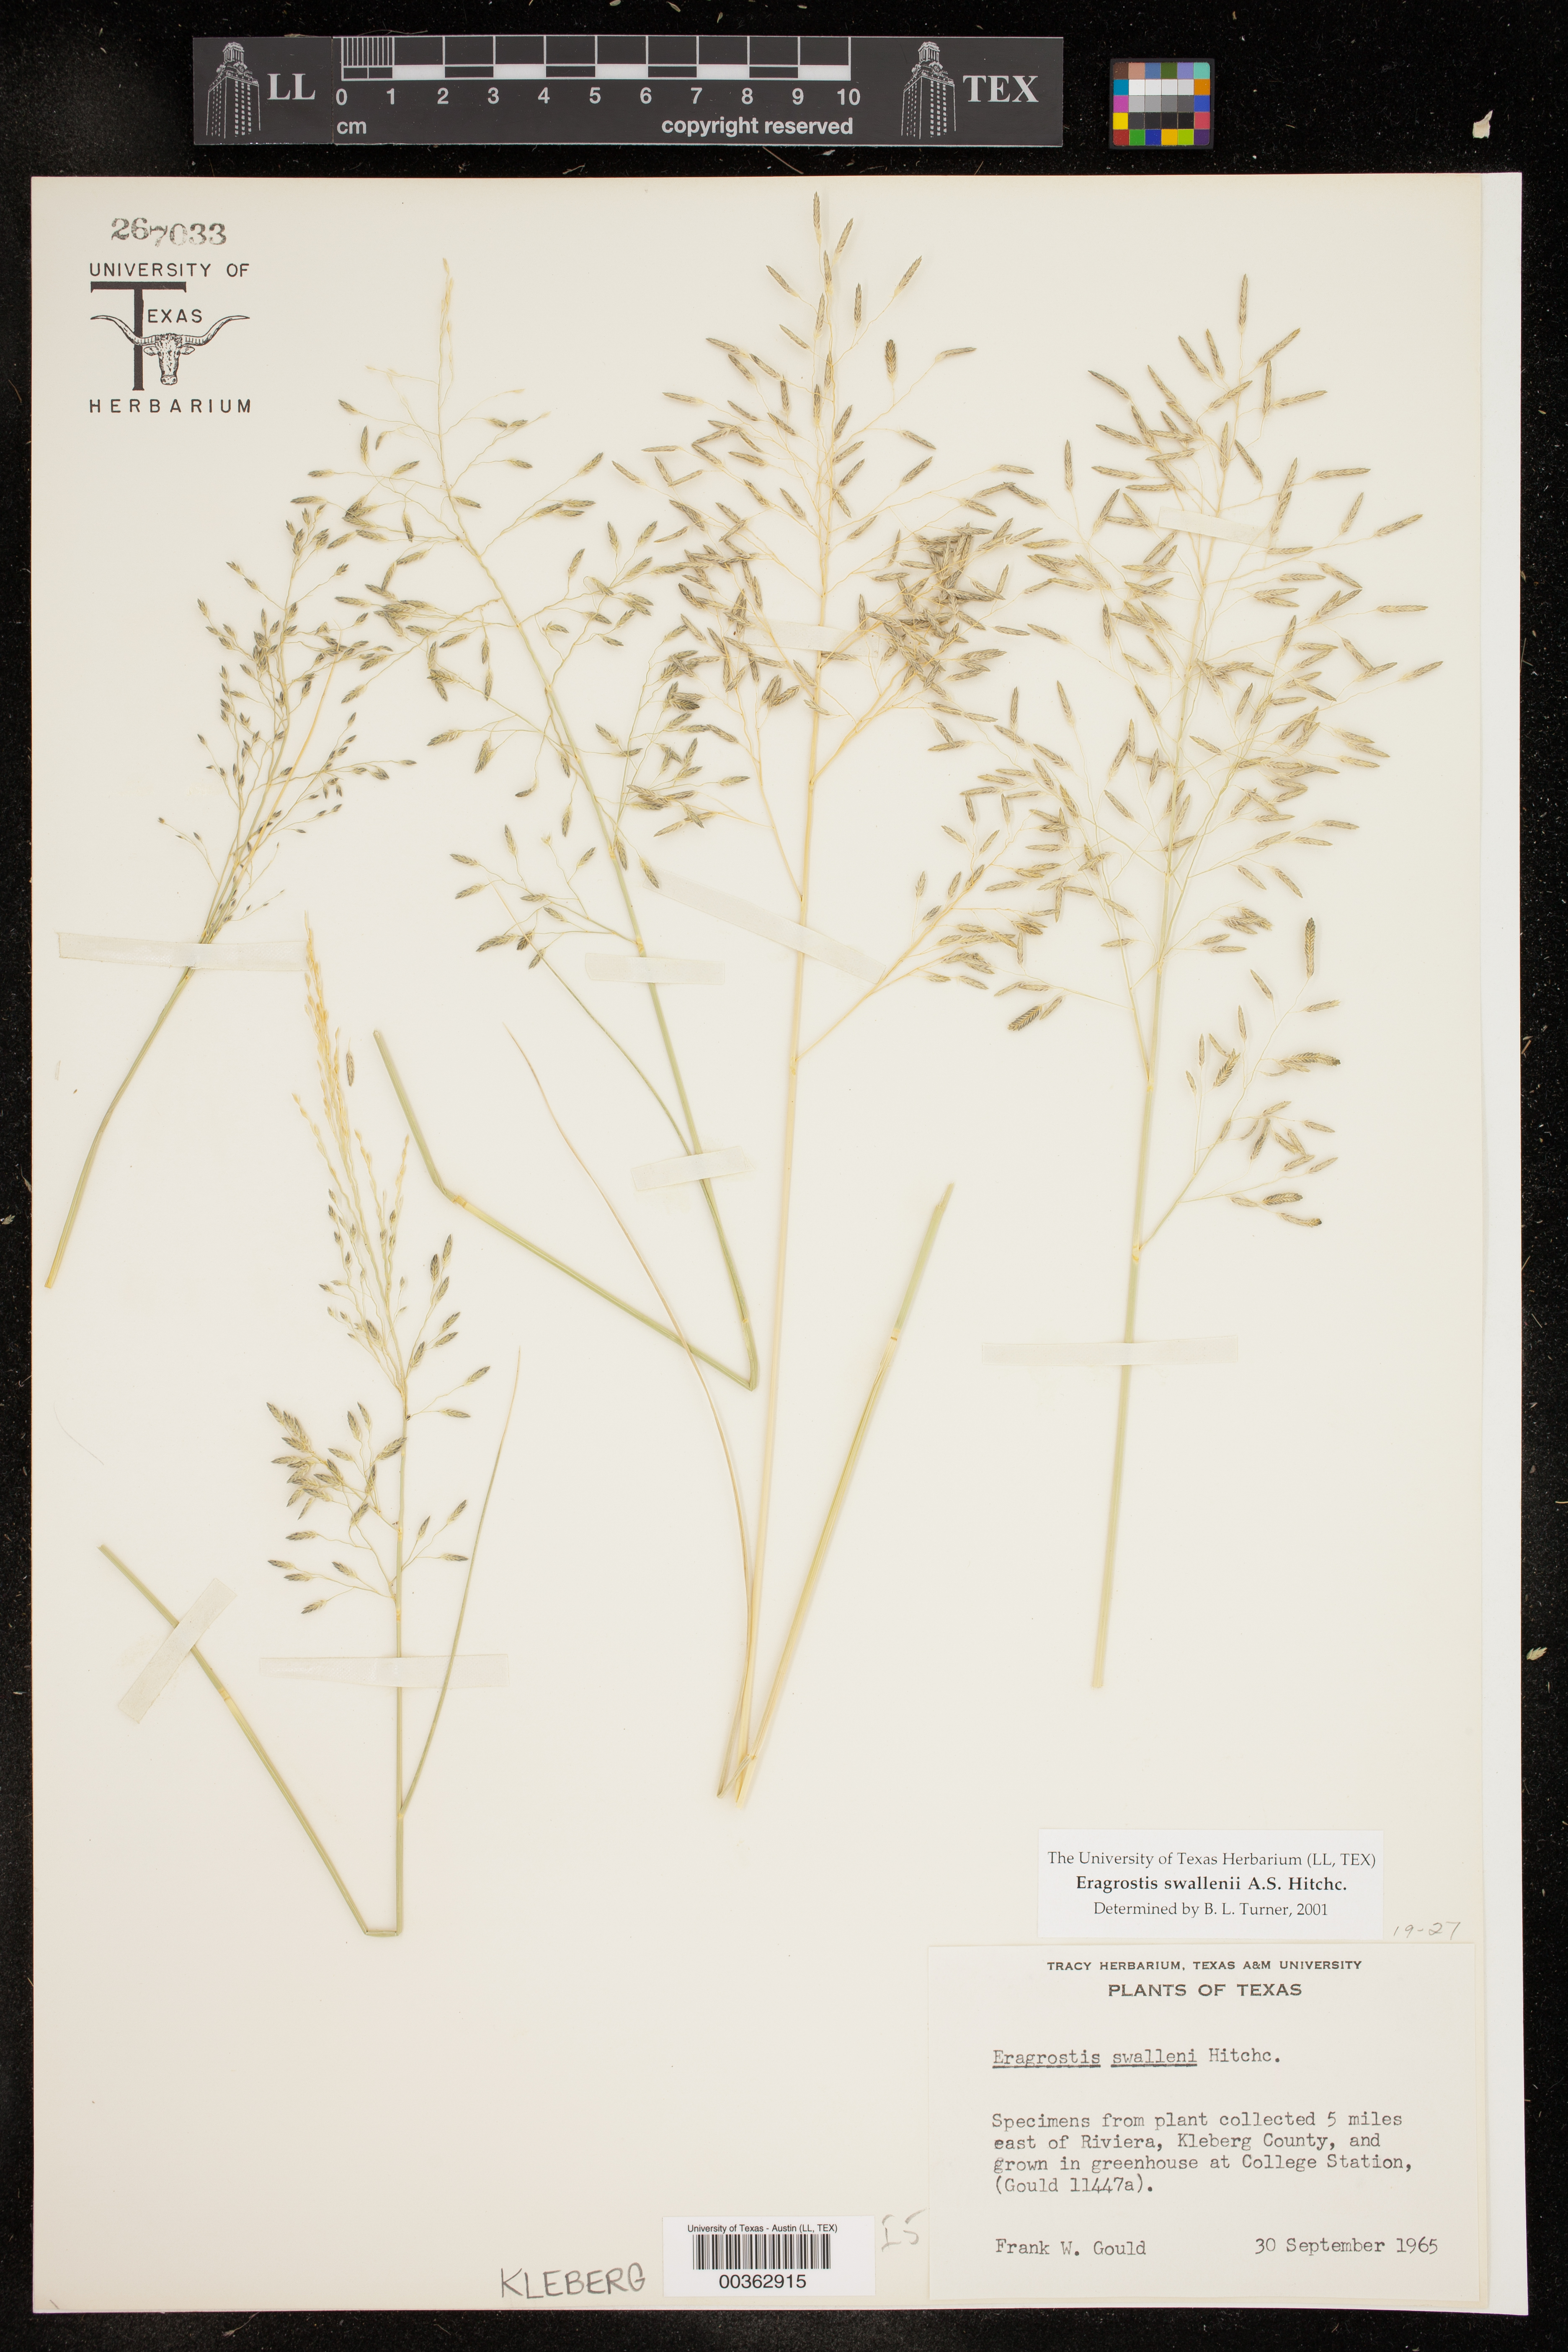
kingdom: Plantae
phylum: Tracheophyta
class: Liliopsida
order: Poales
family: Poaceae
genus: Eragrostis
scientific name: Eragrostis swallenii
